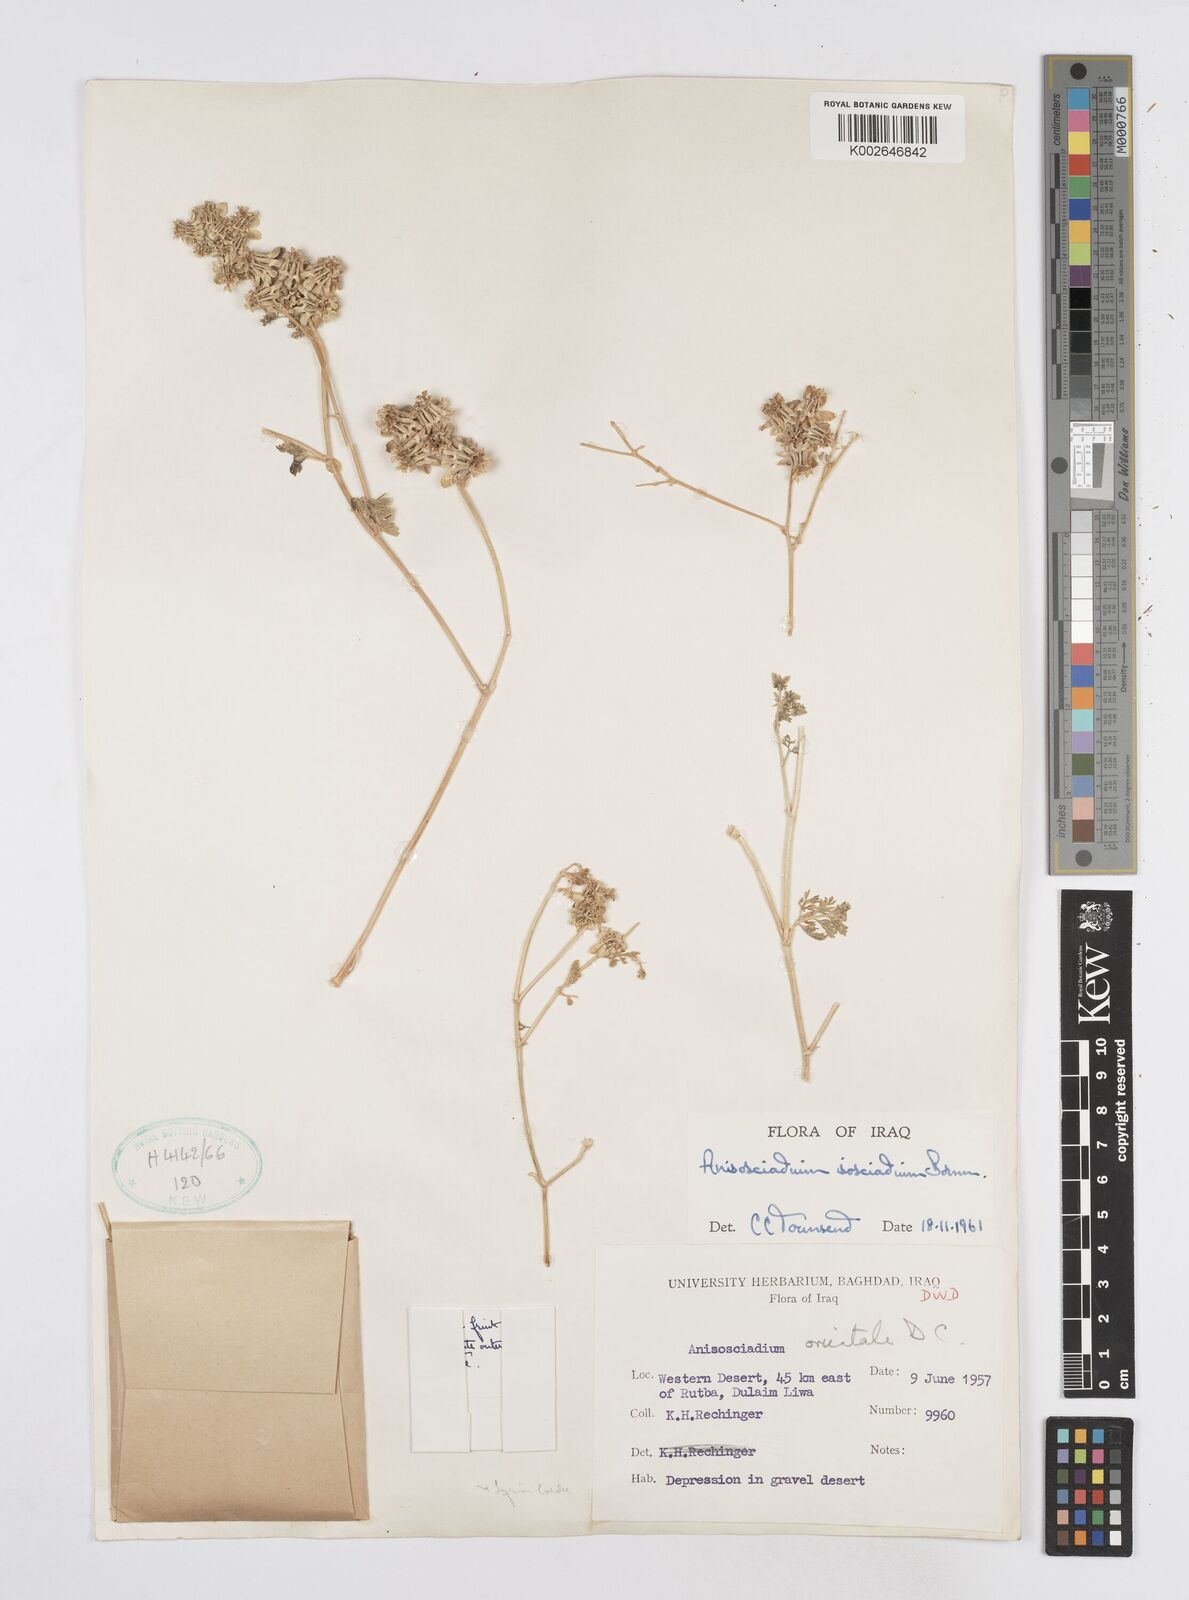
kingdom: Plantae
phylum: Tracheophyta
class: Magnoliopsida
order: Apiales
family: Apiaceae
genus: Anisosciadium
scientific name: Anisosciadium isosciadium
